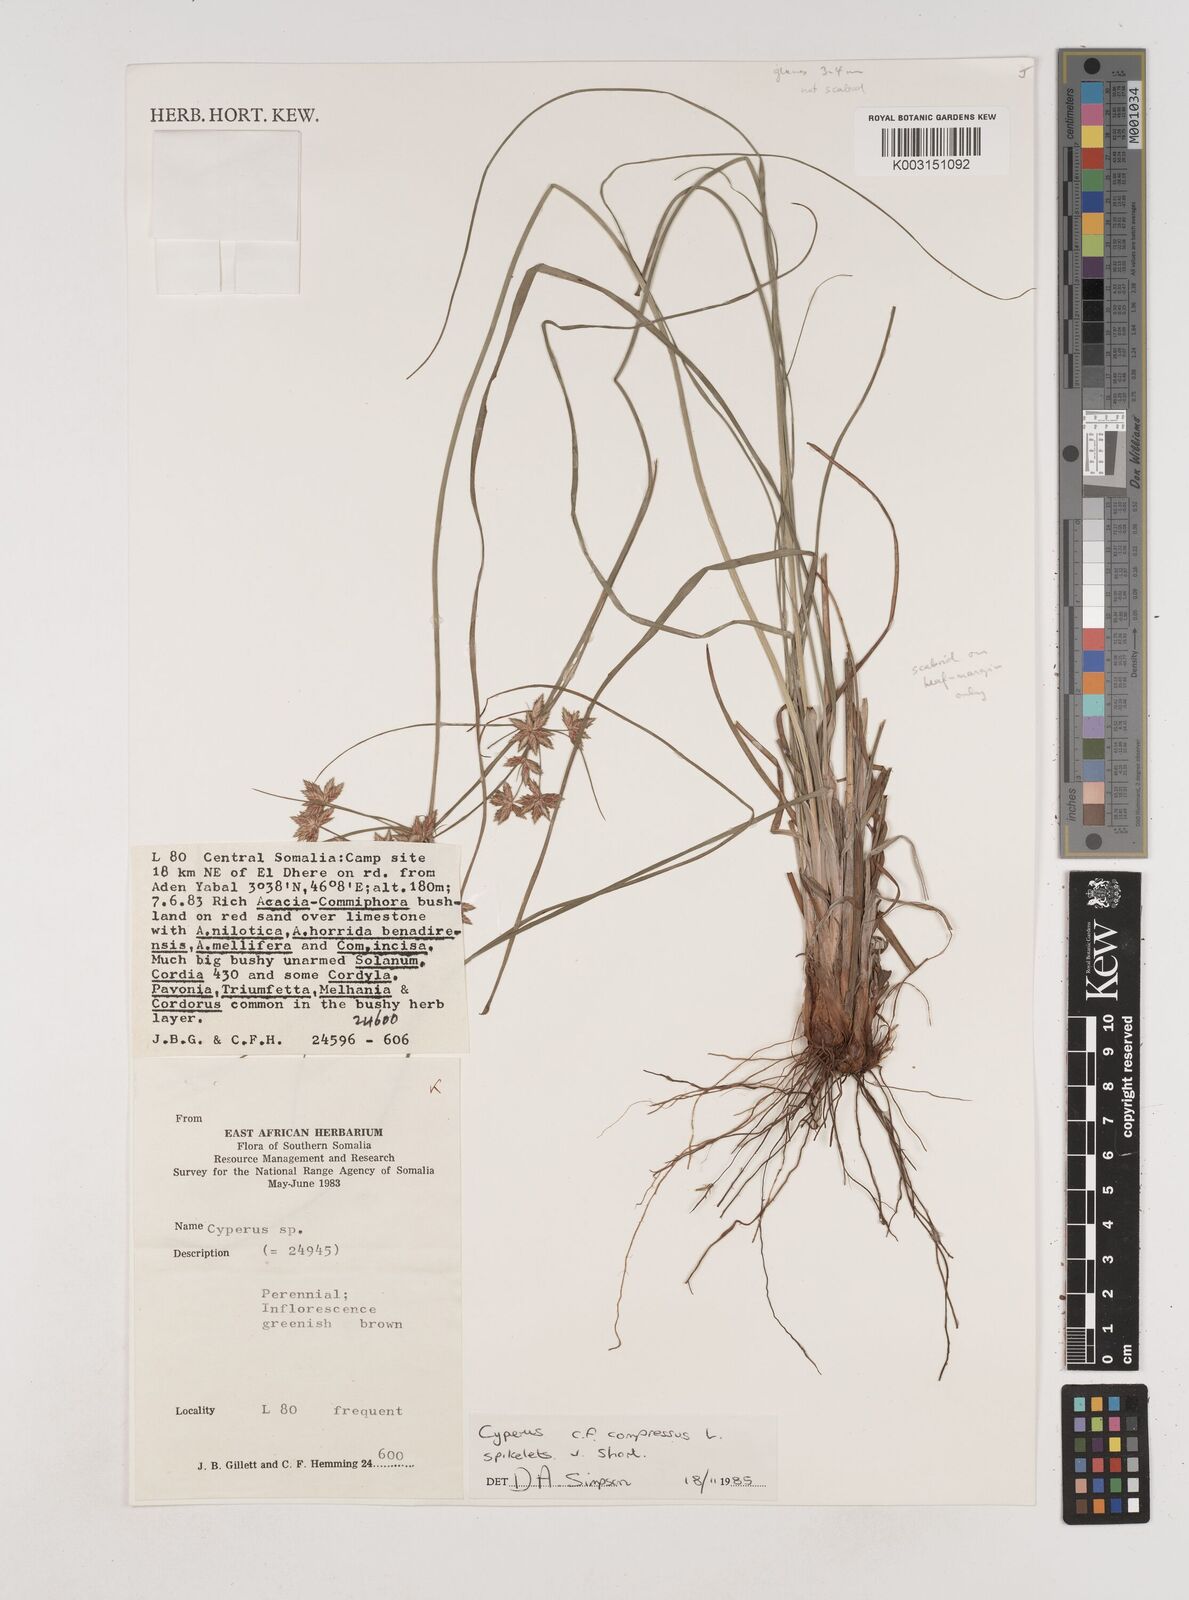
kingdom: Plantae
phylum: Tracheophyta
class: Liliopsida
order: Poales
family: Cyperaceae
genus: Cyperus
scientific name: Cyperus poecilus
